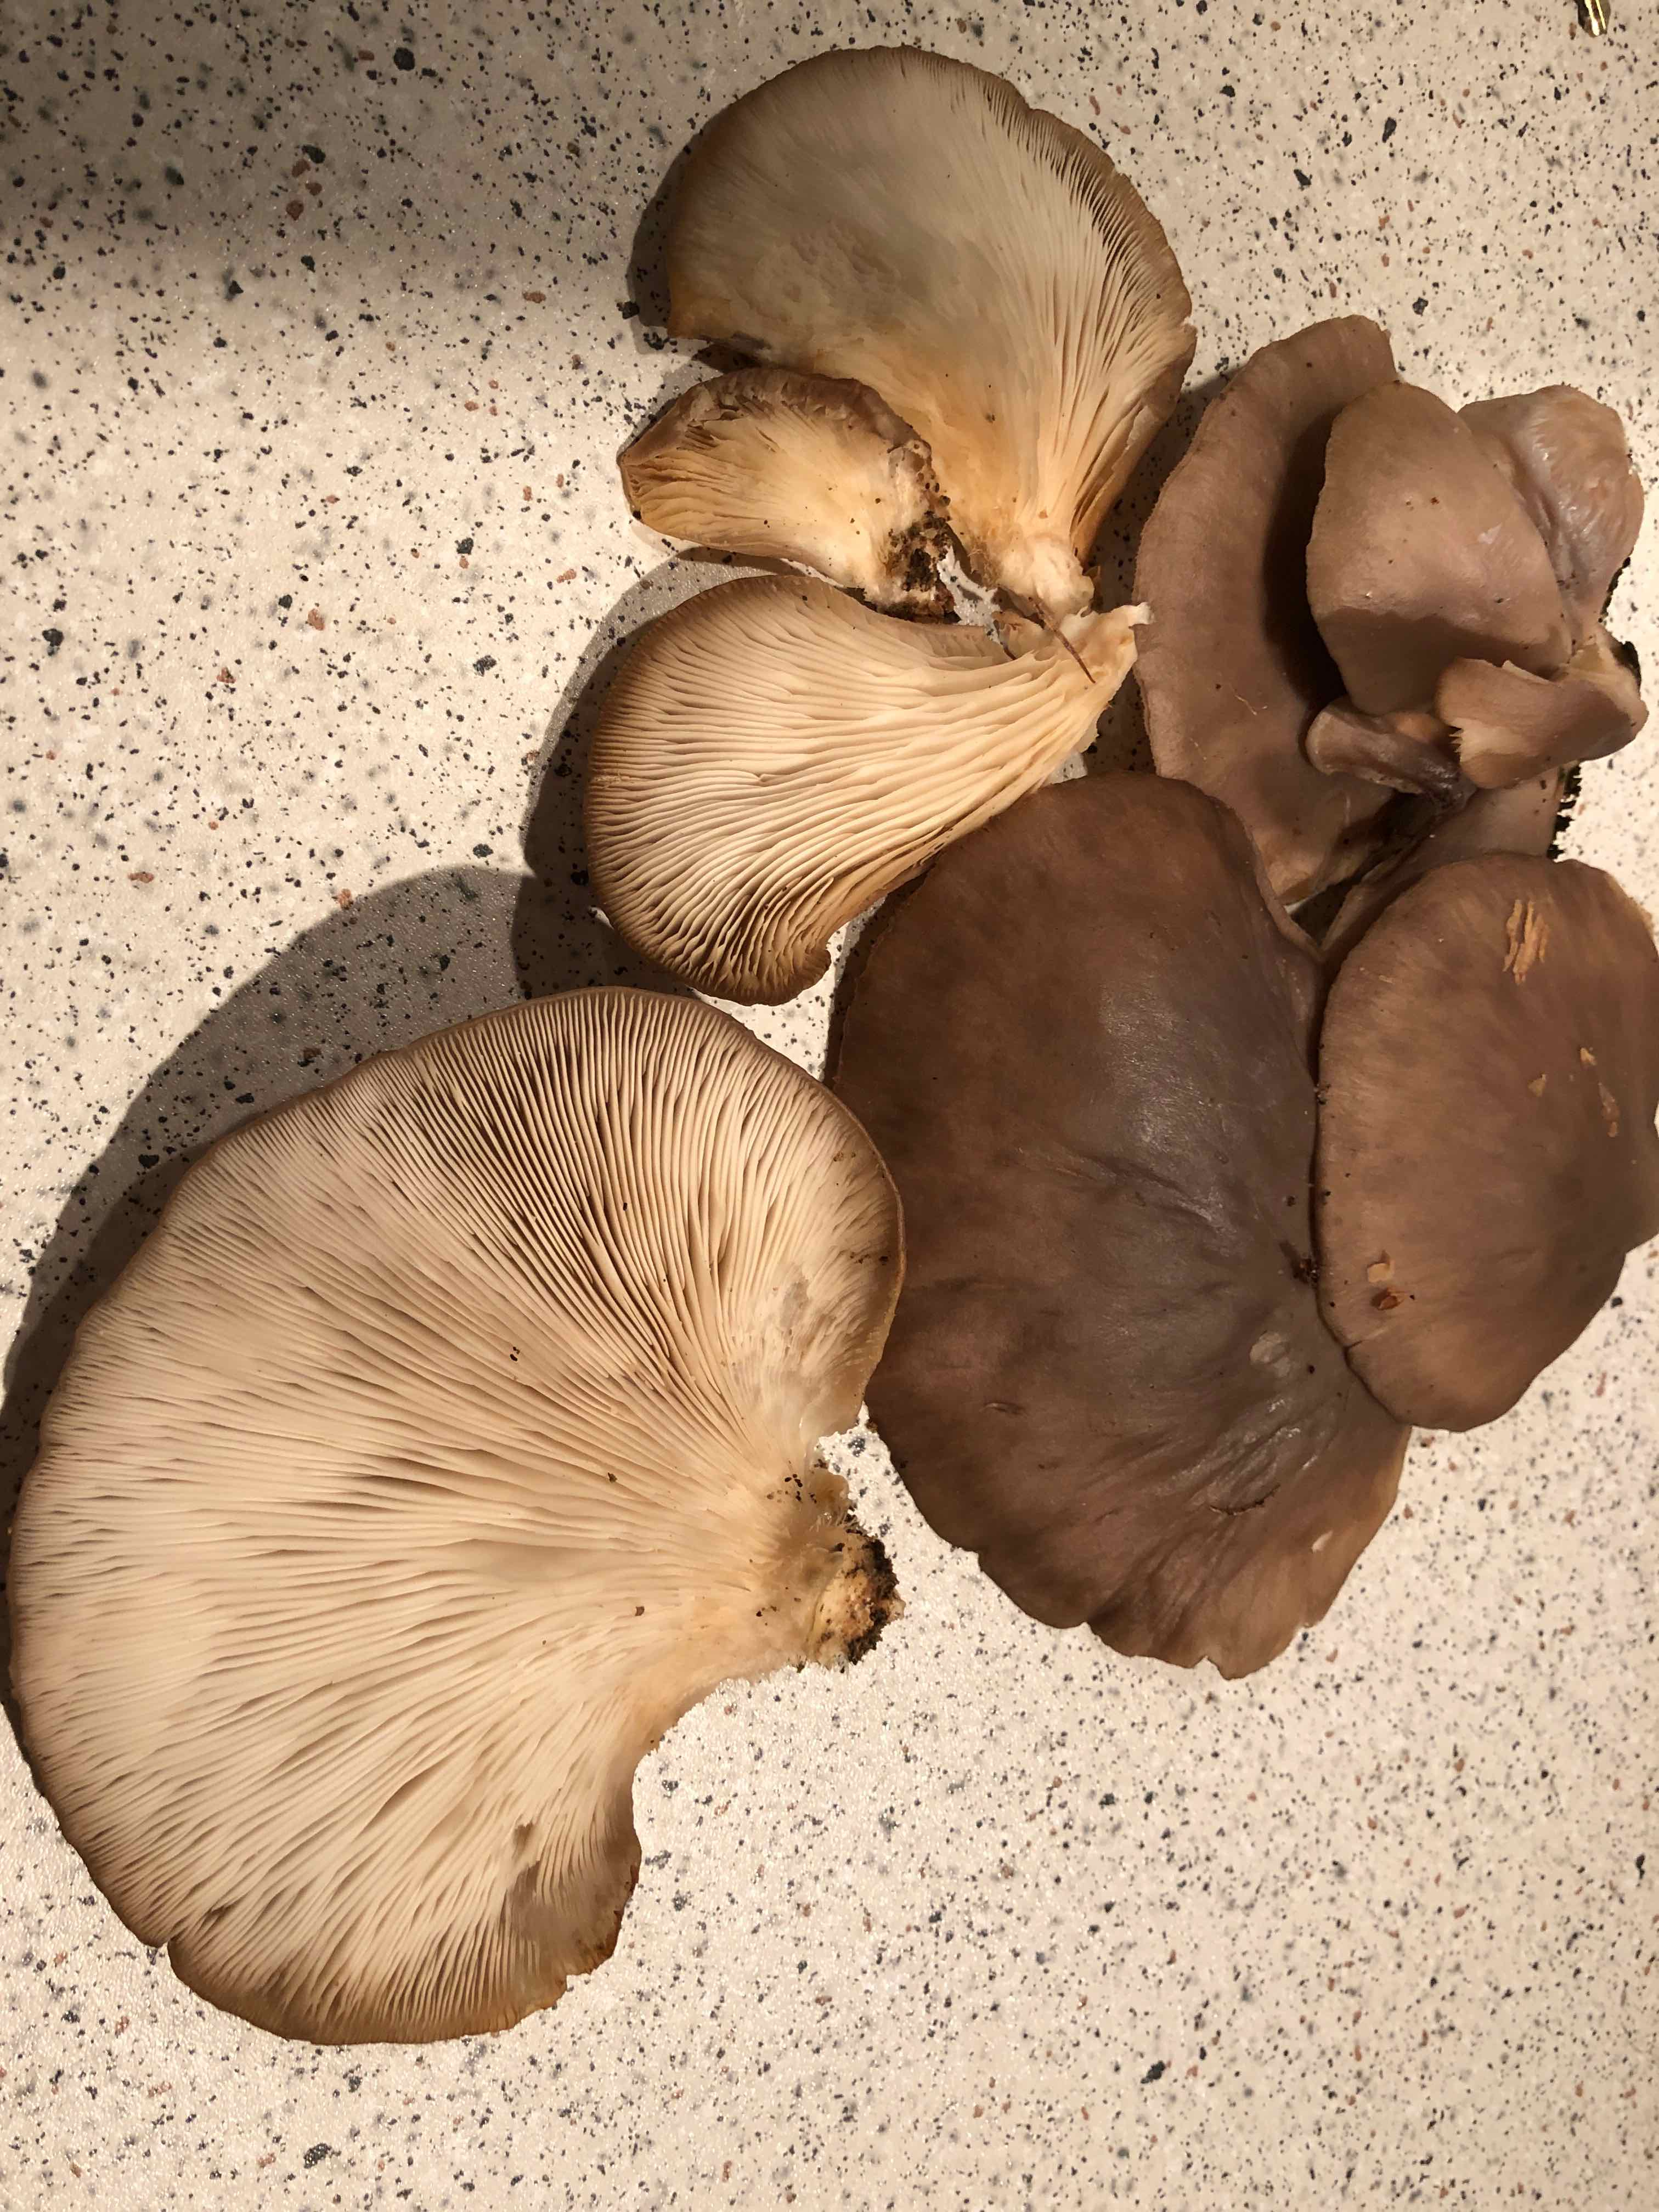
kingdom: Fungi
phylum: Basidiomycota
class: Agaricomycetes
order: Agaricales
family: Pleurotaceae
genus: Pleurotus
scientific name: Pleurotus ostreatus
